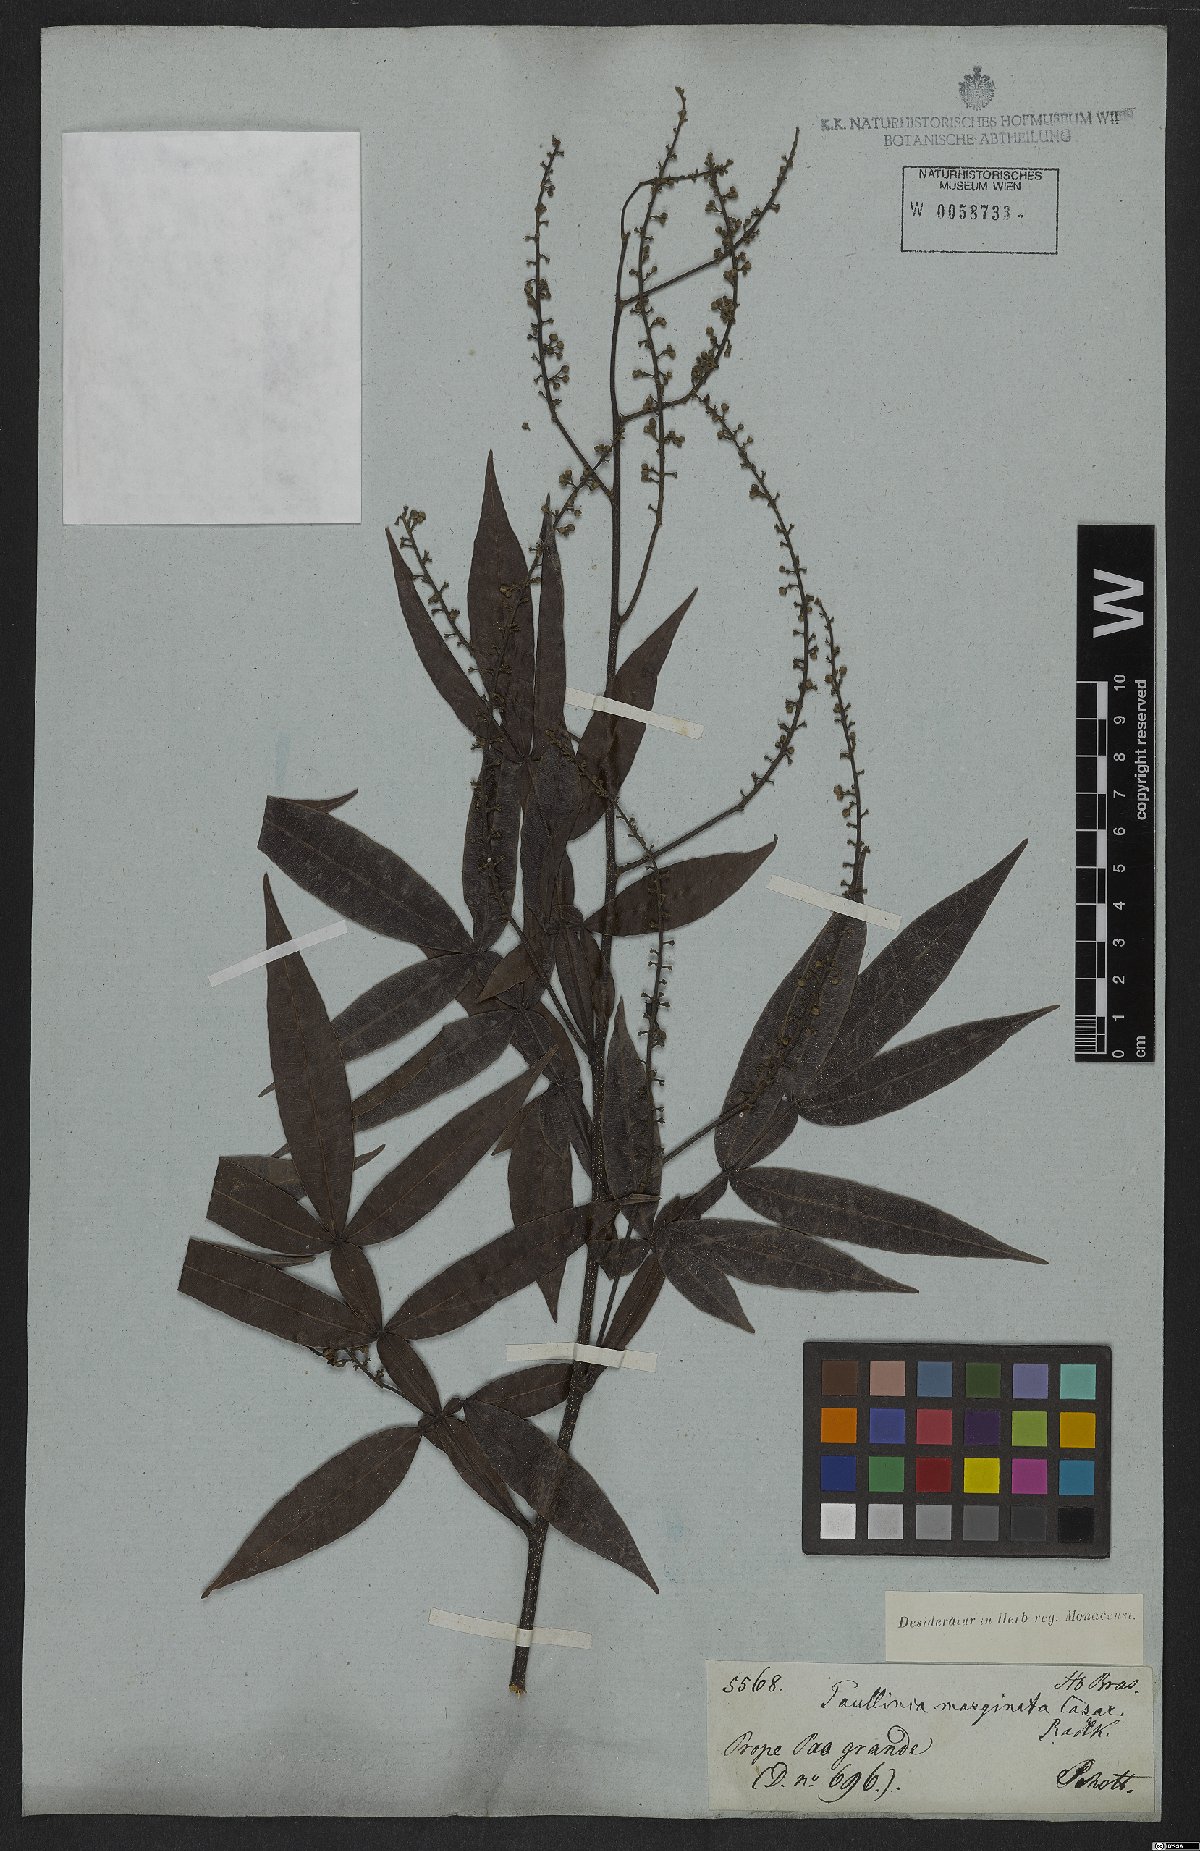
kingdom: Plantae
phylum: Tracheophyta
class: Magnoliopsida
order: Sapindales
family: Sapindaceae
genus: Paullinia
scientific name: Paullinia marginata
